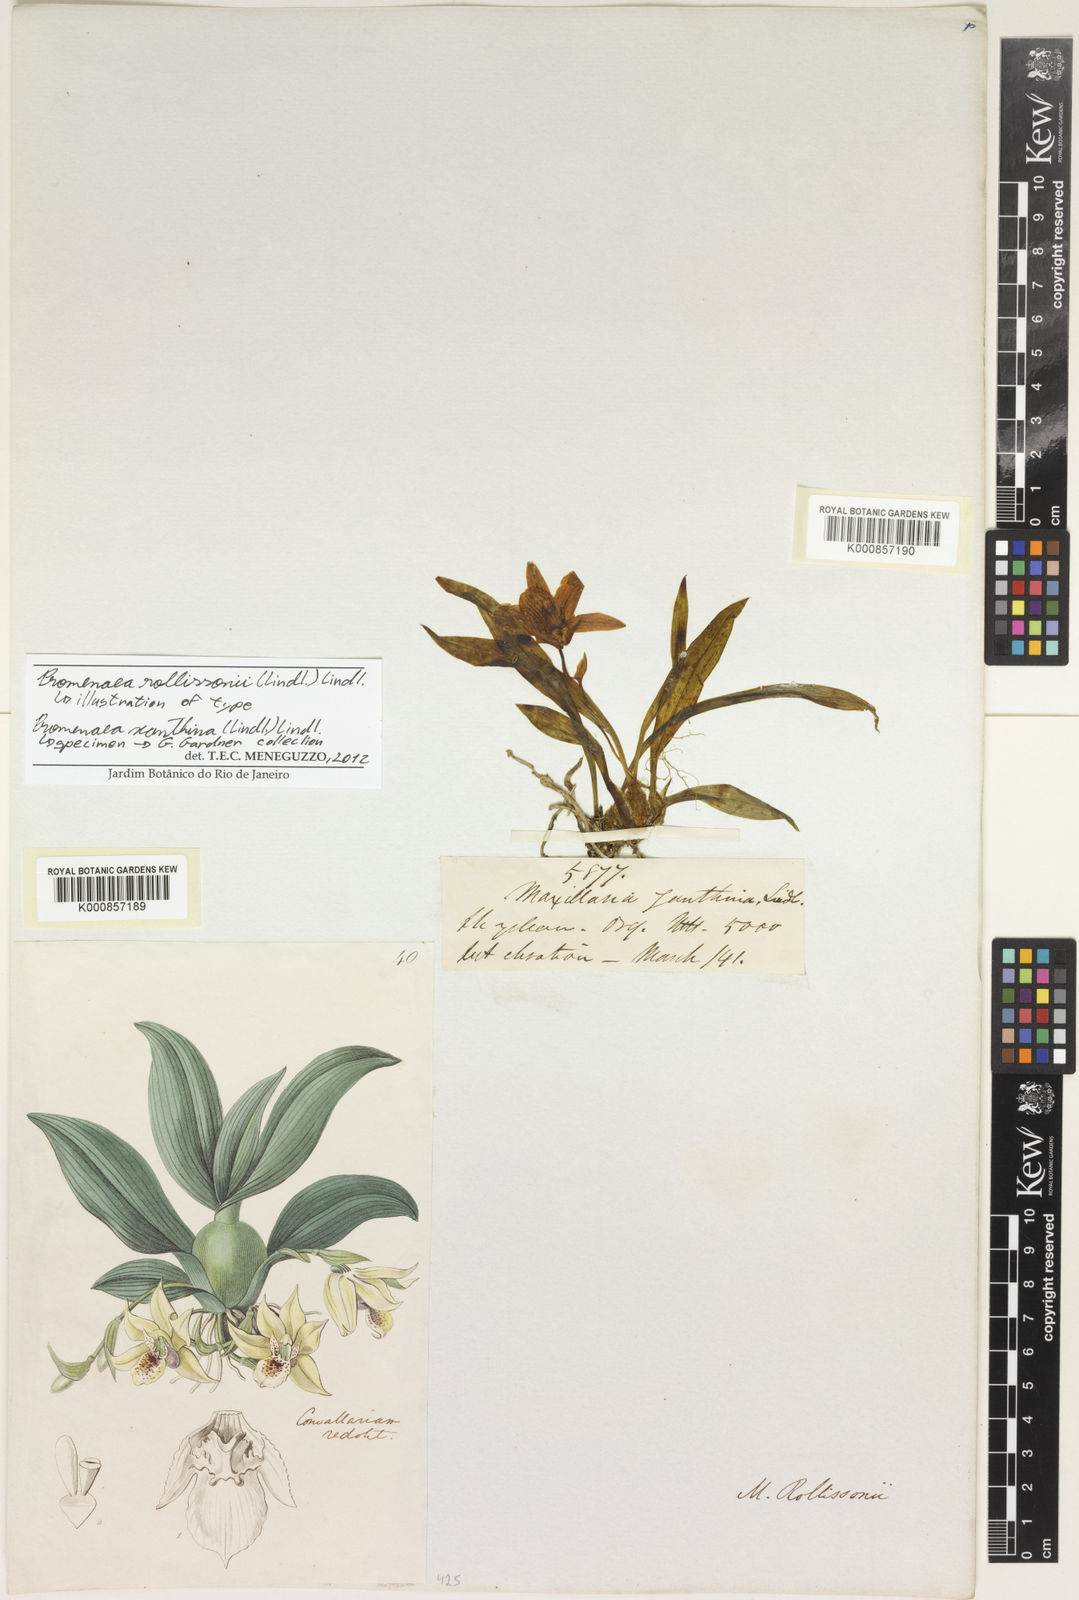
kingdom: Plantae
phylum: Tracheophyta
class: Liliopsida
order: Asparagales
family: Orchidaceae
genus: Promenaea
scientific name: Promenaea xanthina
